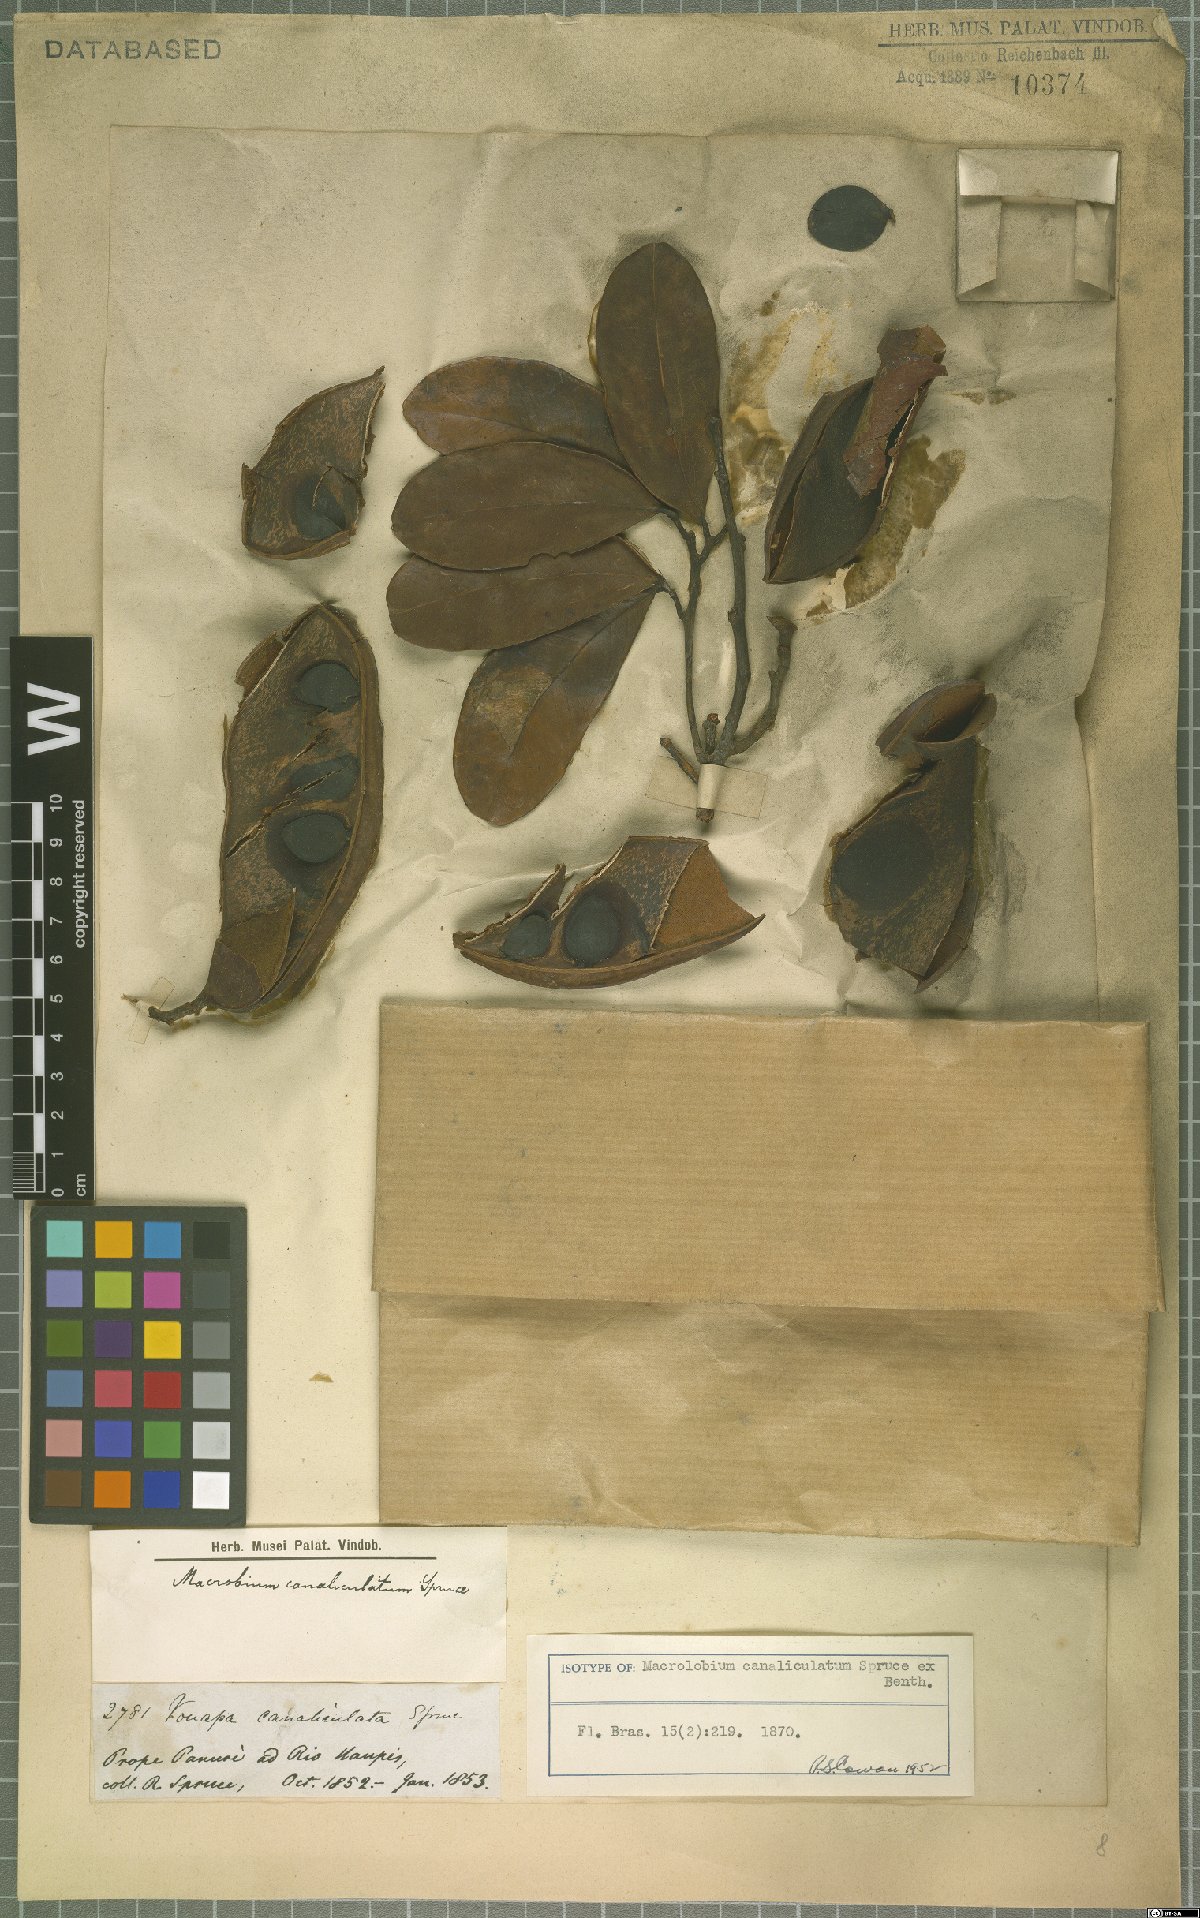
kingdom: Plantae
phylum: Tracheophyta
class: Magnoliopsida
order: Fabales
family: Fabaceae
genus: Macrolobium
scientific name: Macrolobium canaliculatum
